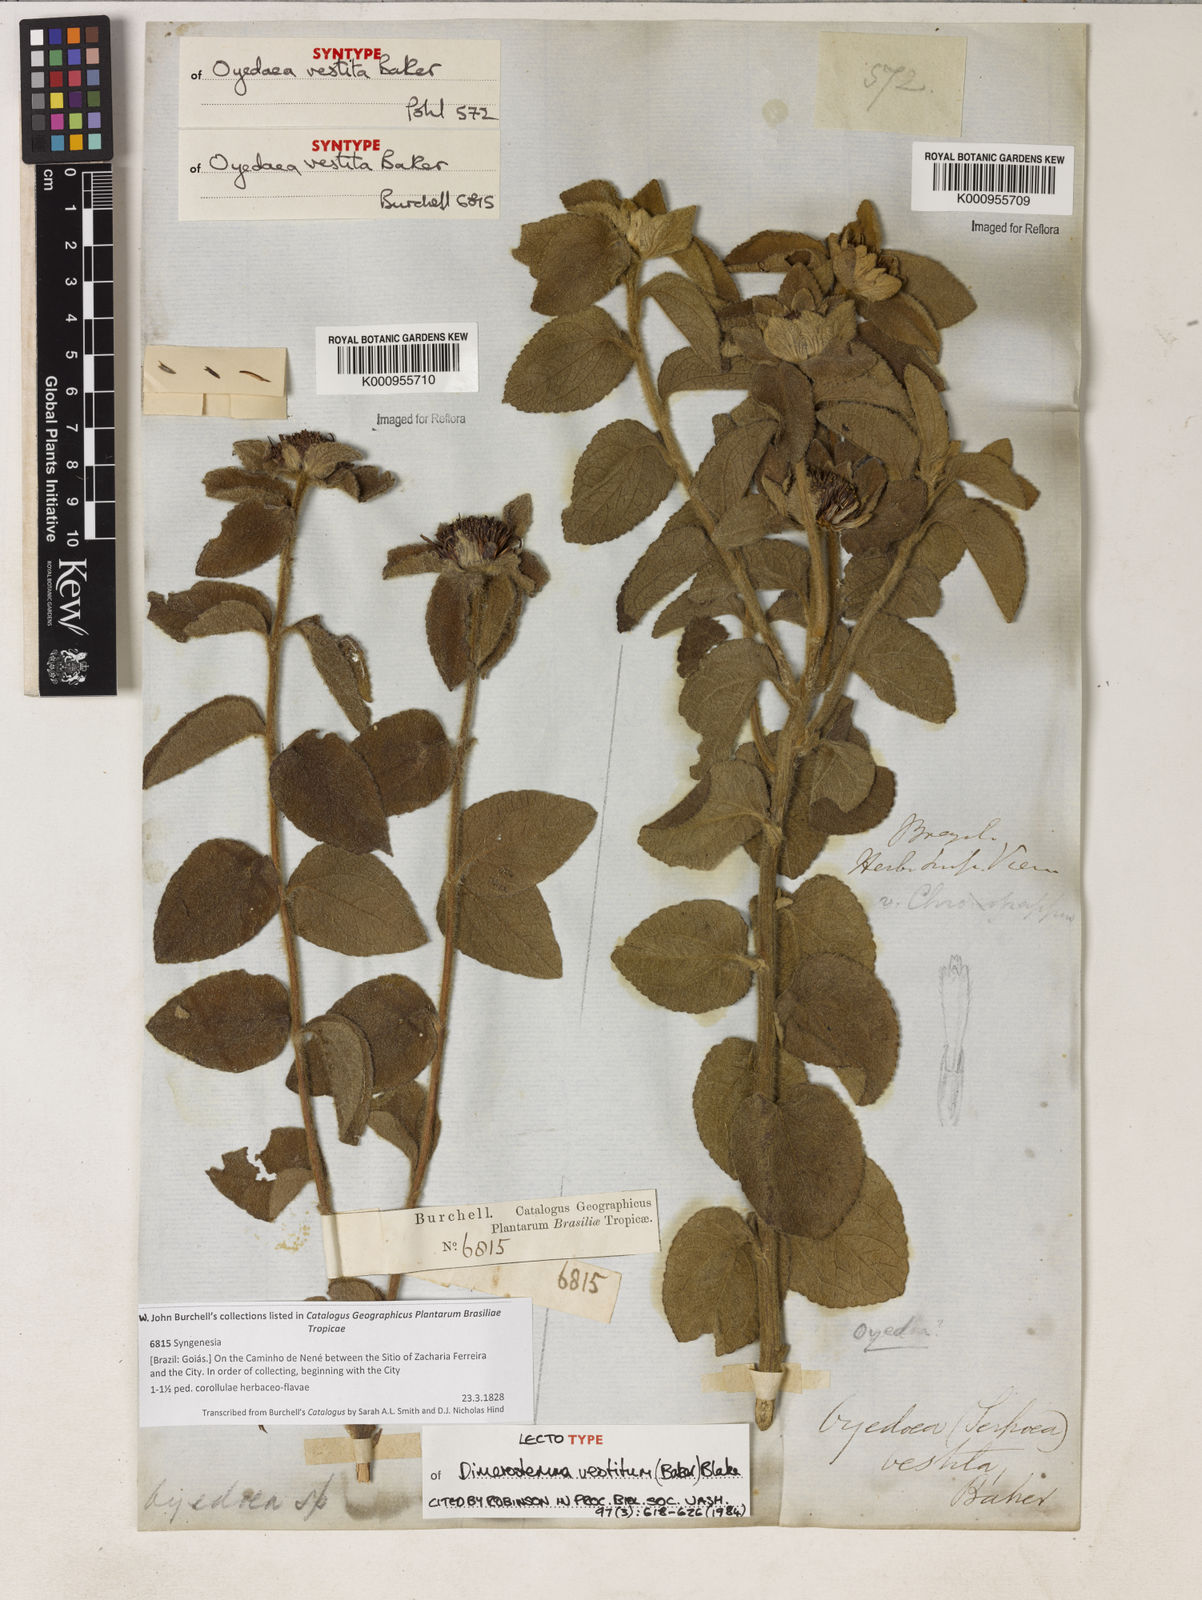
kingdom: Plantae
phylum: Tracheophyta
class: Magnoliopsida
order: Asterales
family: Asteraceae
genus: Dimerostemma
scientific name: Dimerostemma vestitum
